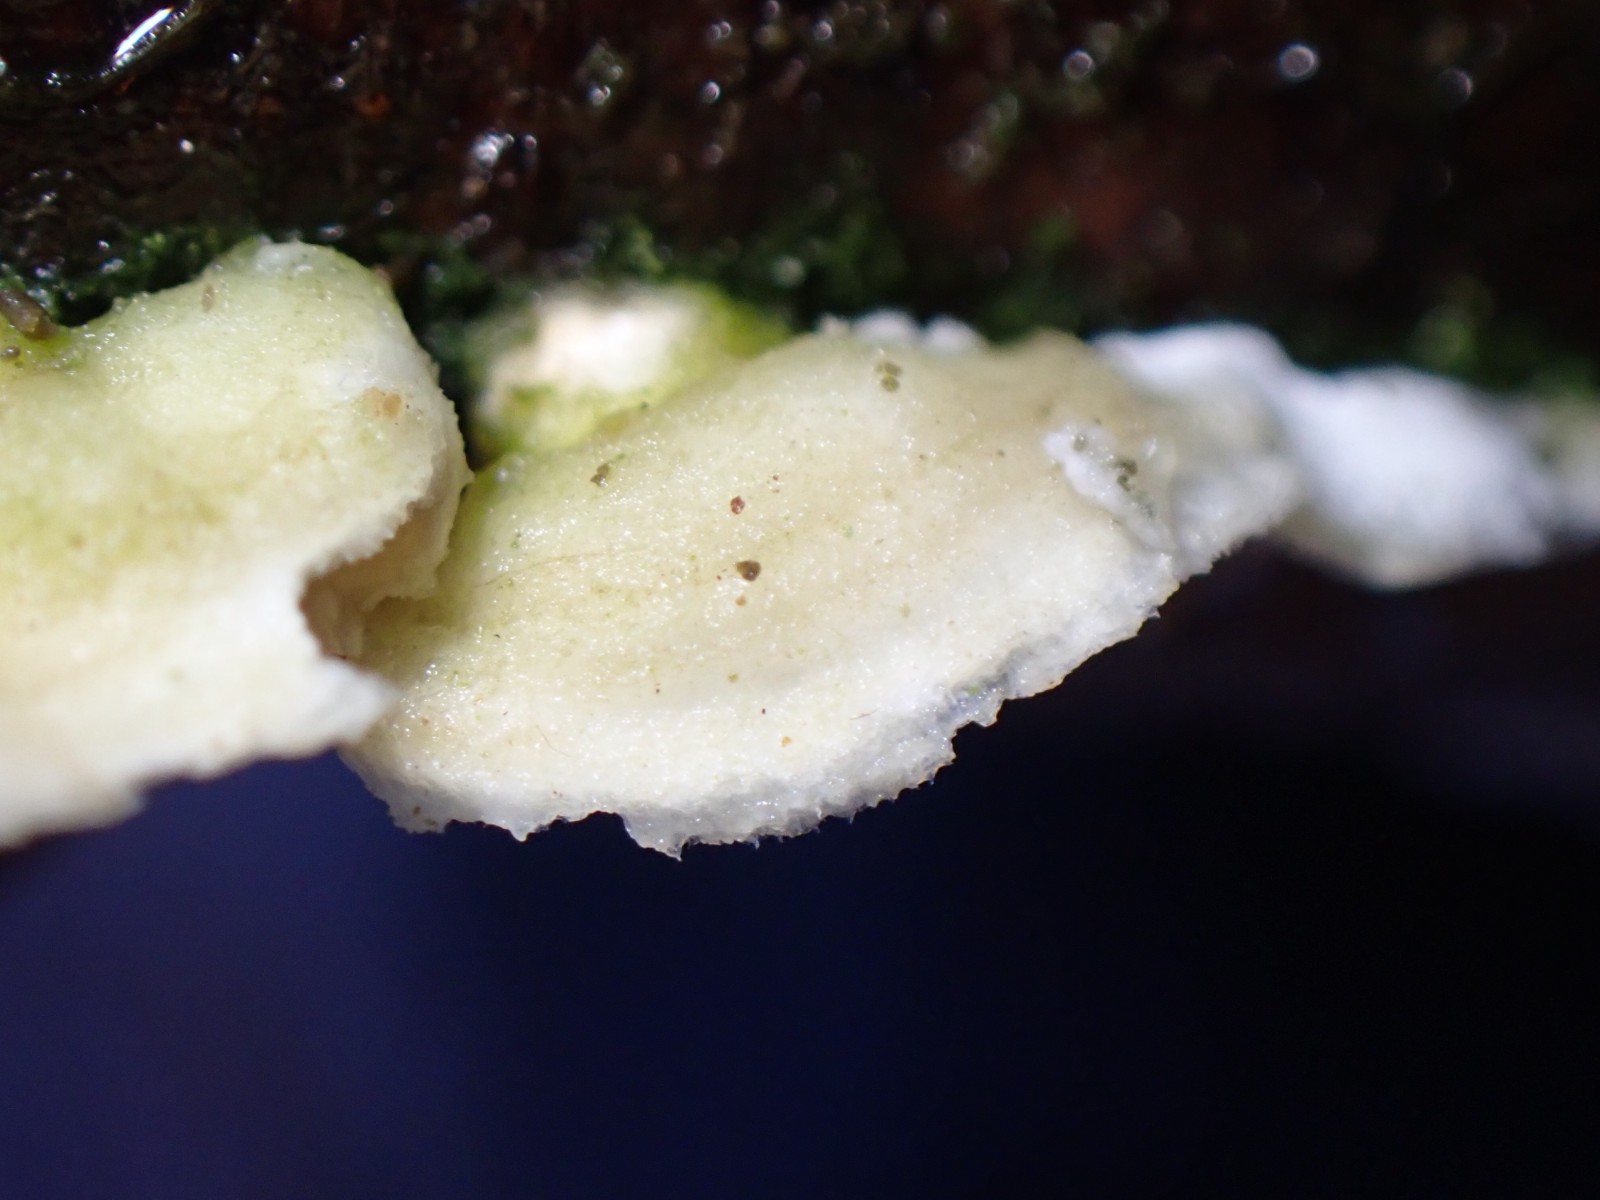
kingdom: Fungi
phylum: Basidiomycota
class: Agaricomycetes
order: Polyporales
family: Irpicaceae
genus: Byssomerulius
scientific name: Byssomerulius corium
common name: læder-åresvamp
